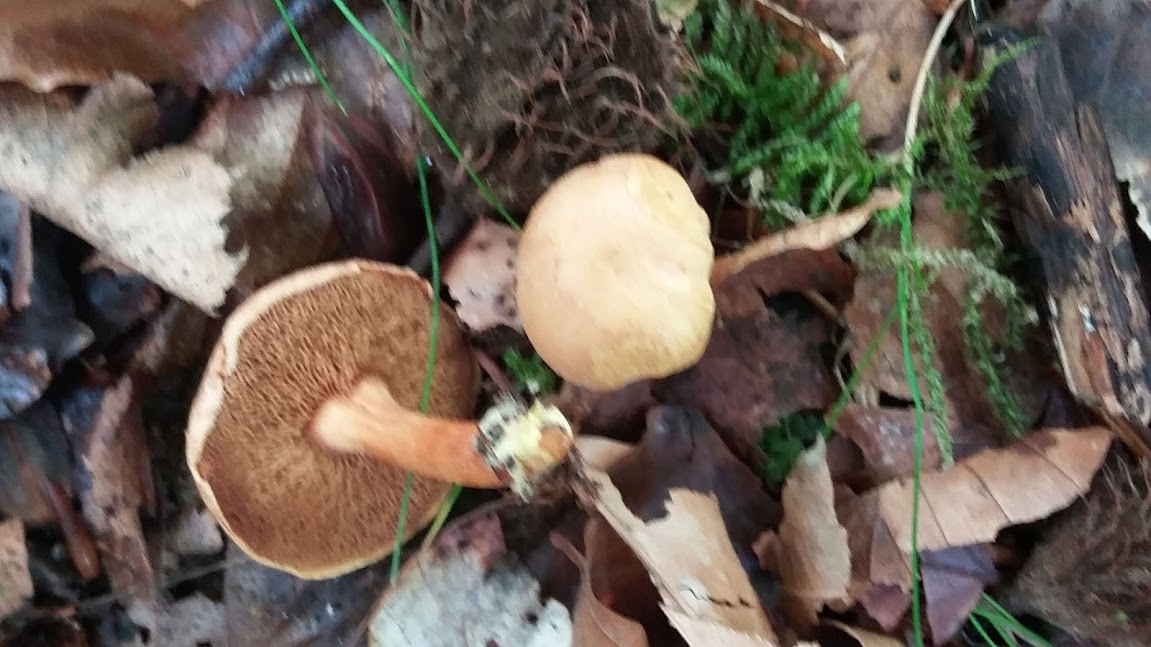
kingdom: Fungi
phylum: Basidiomycota
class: Agaricomycetes
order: Boletales
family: Boletaceae
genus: Chalciporus
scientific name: Chalciporus piperatus
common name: peberrørhat
